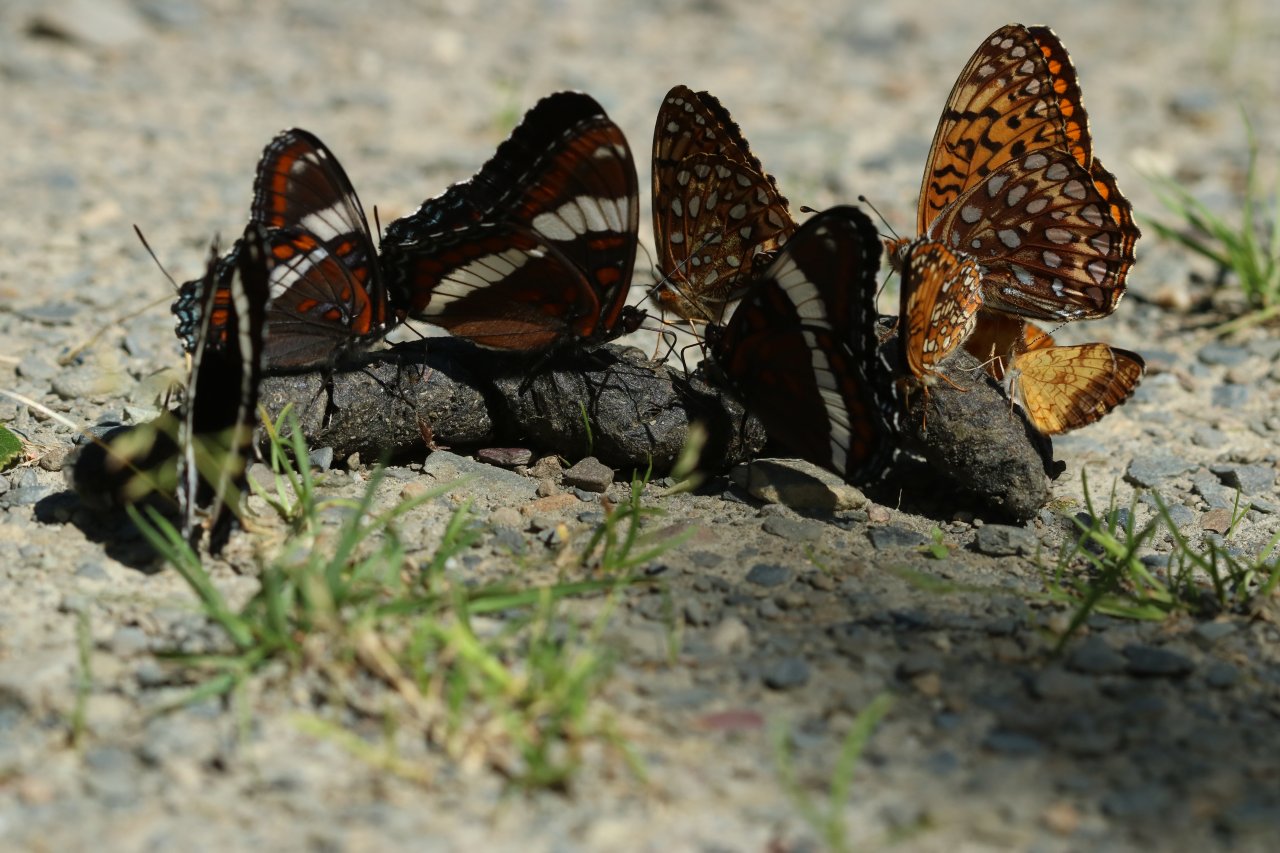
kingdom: Animalia
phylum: Arthropoda
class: Insecta
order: Lepidoptera
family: Nymphalidae
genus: Limenitis
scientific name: Limenitis arthemis
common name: Red-spotted Admiral
